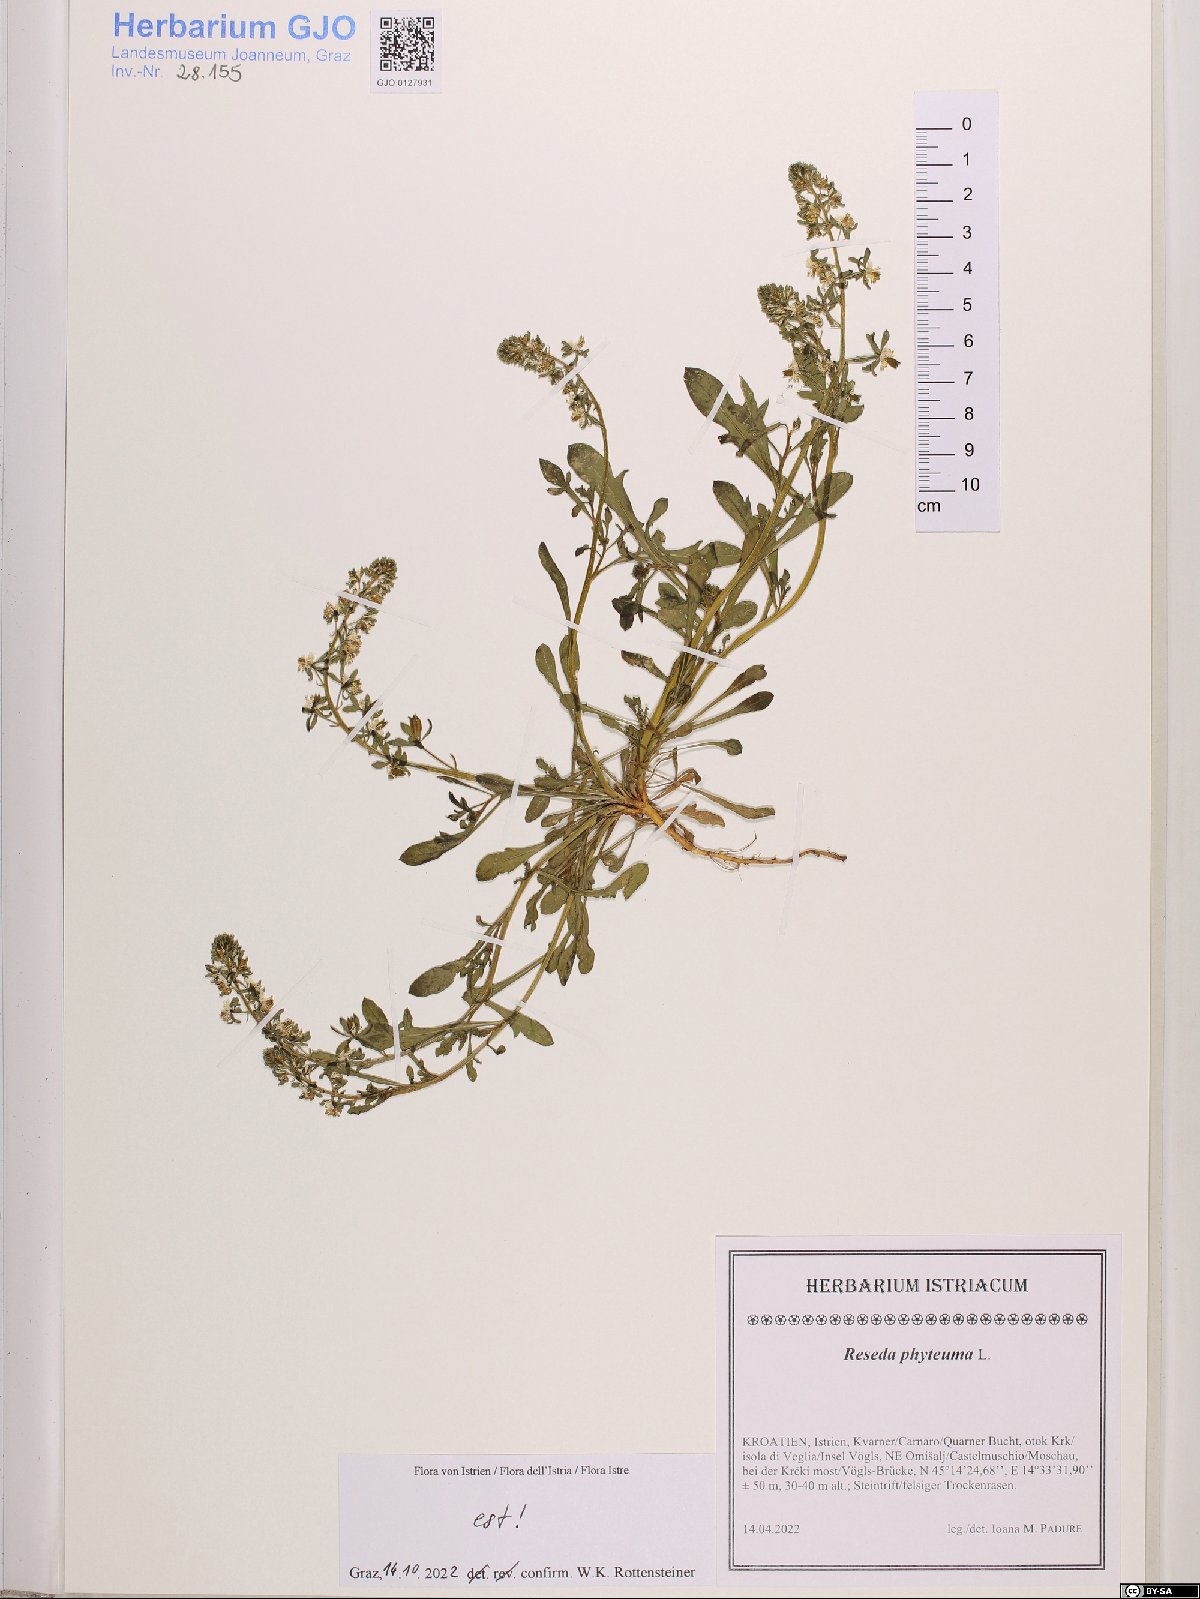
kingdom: Plantae
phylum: Tracheophyta
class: Magnoliopsida
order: Brassicales
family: Resedaceae
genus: Reseda
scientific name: Reseda phyteuma
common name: Corn mignonette
